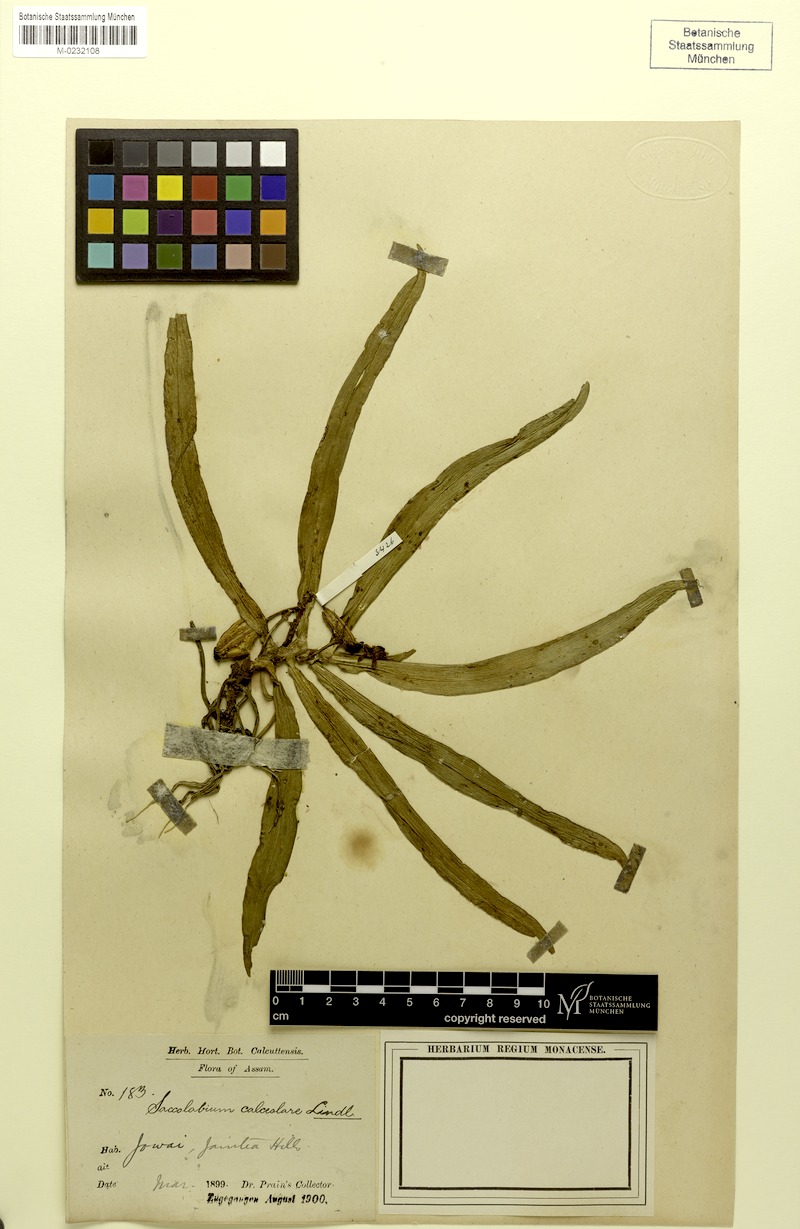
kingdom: Plantae
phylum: Tracheophyta
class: Liliopsida
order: Asparagales
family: Orchidaceae
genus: Gastrochilus
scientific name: Gastrochilus calceolaris
